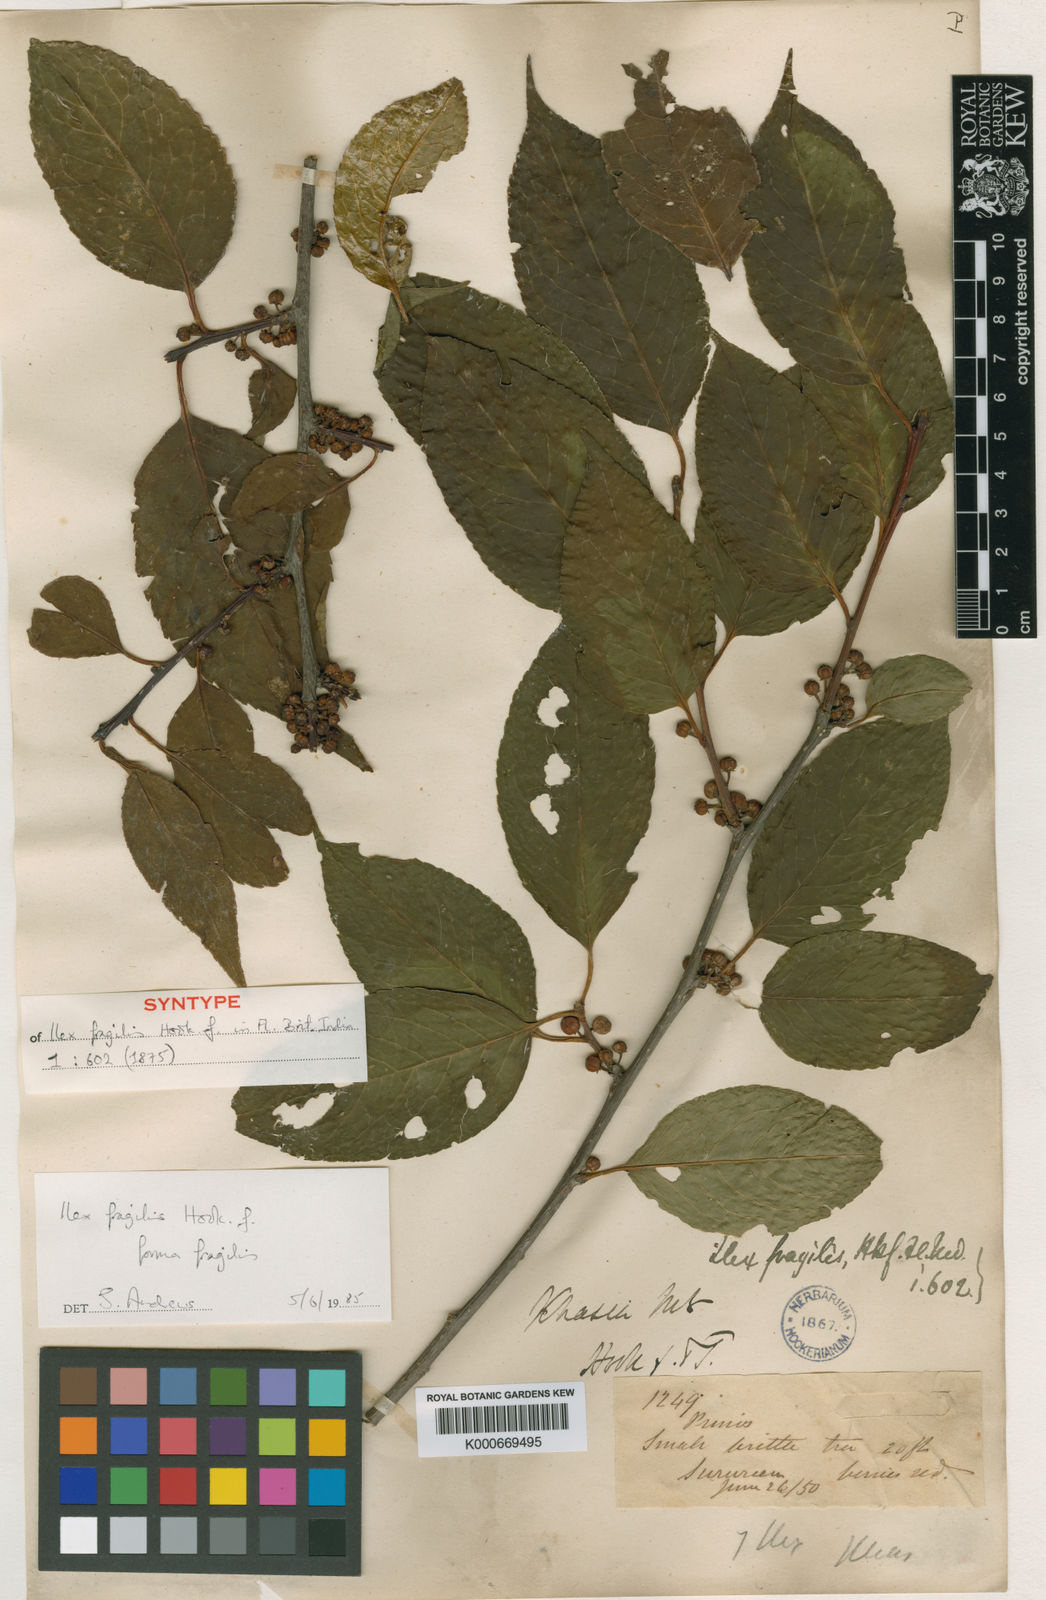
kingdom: Plantae
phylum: Tracheophyta
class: Magnoliopsida
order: Aquifoliales
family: Aquifoliaceae
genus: Ilex
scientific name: Ilex fragilis
